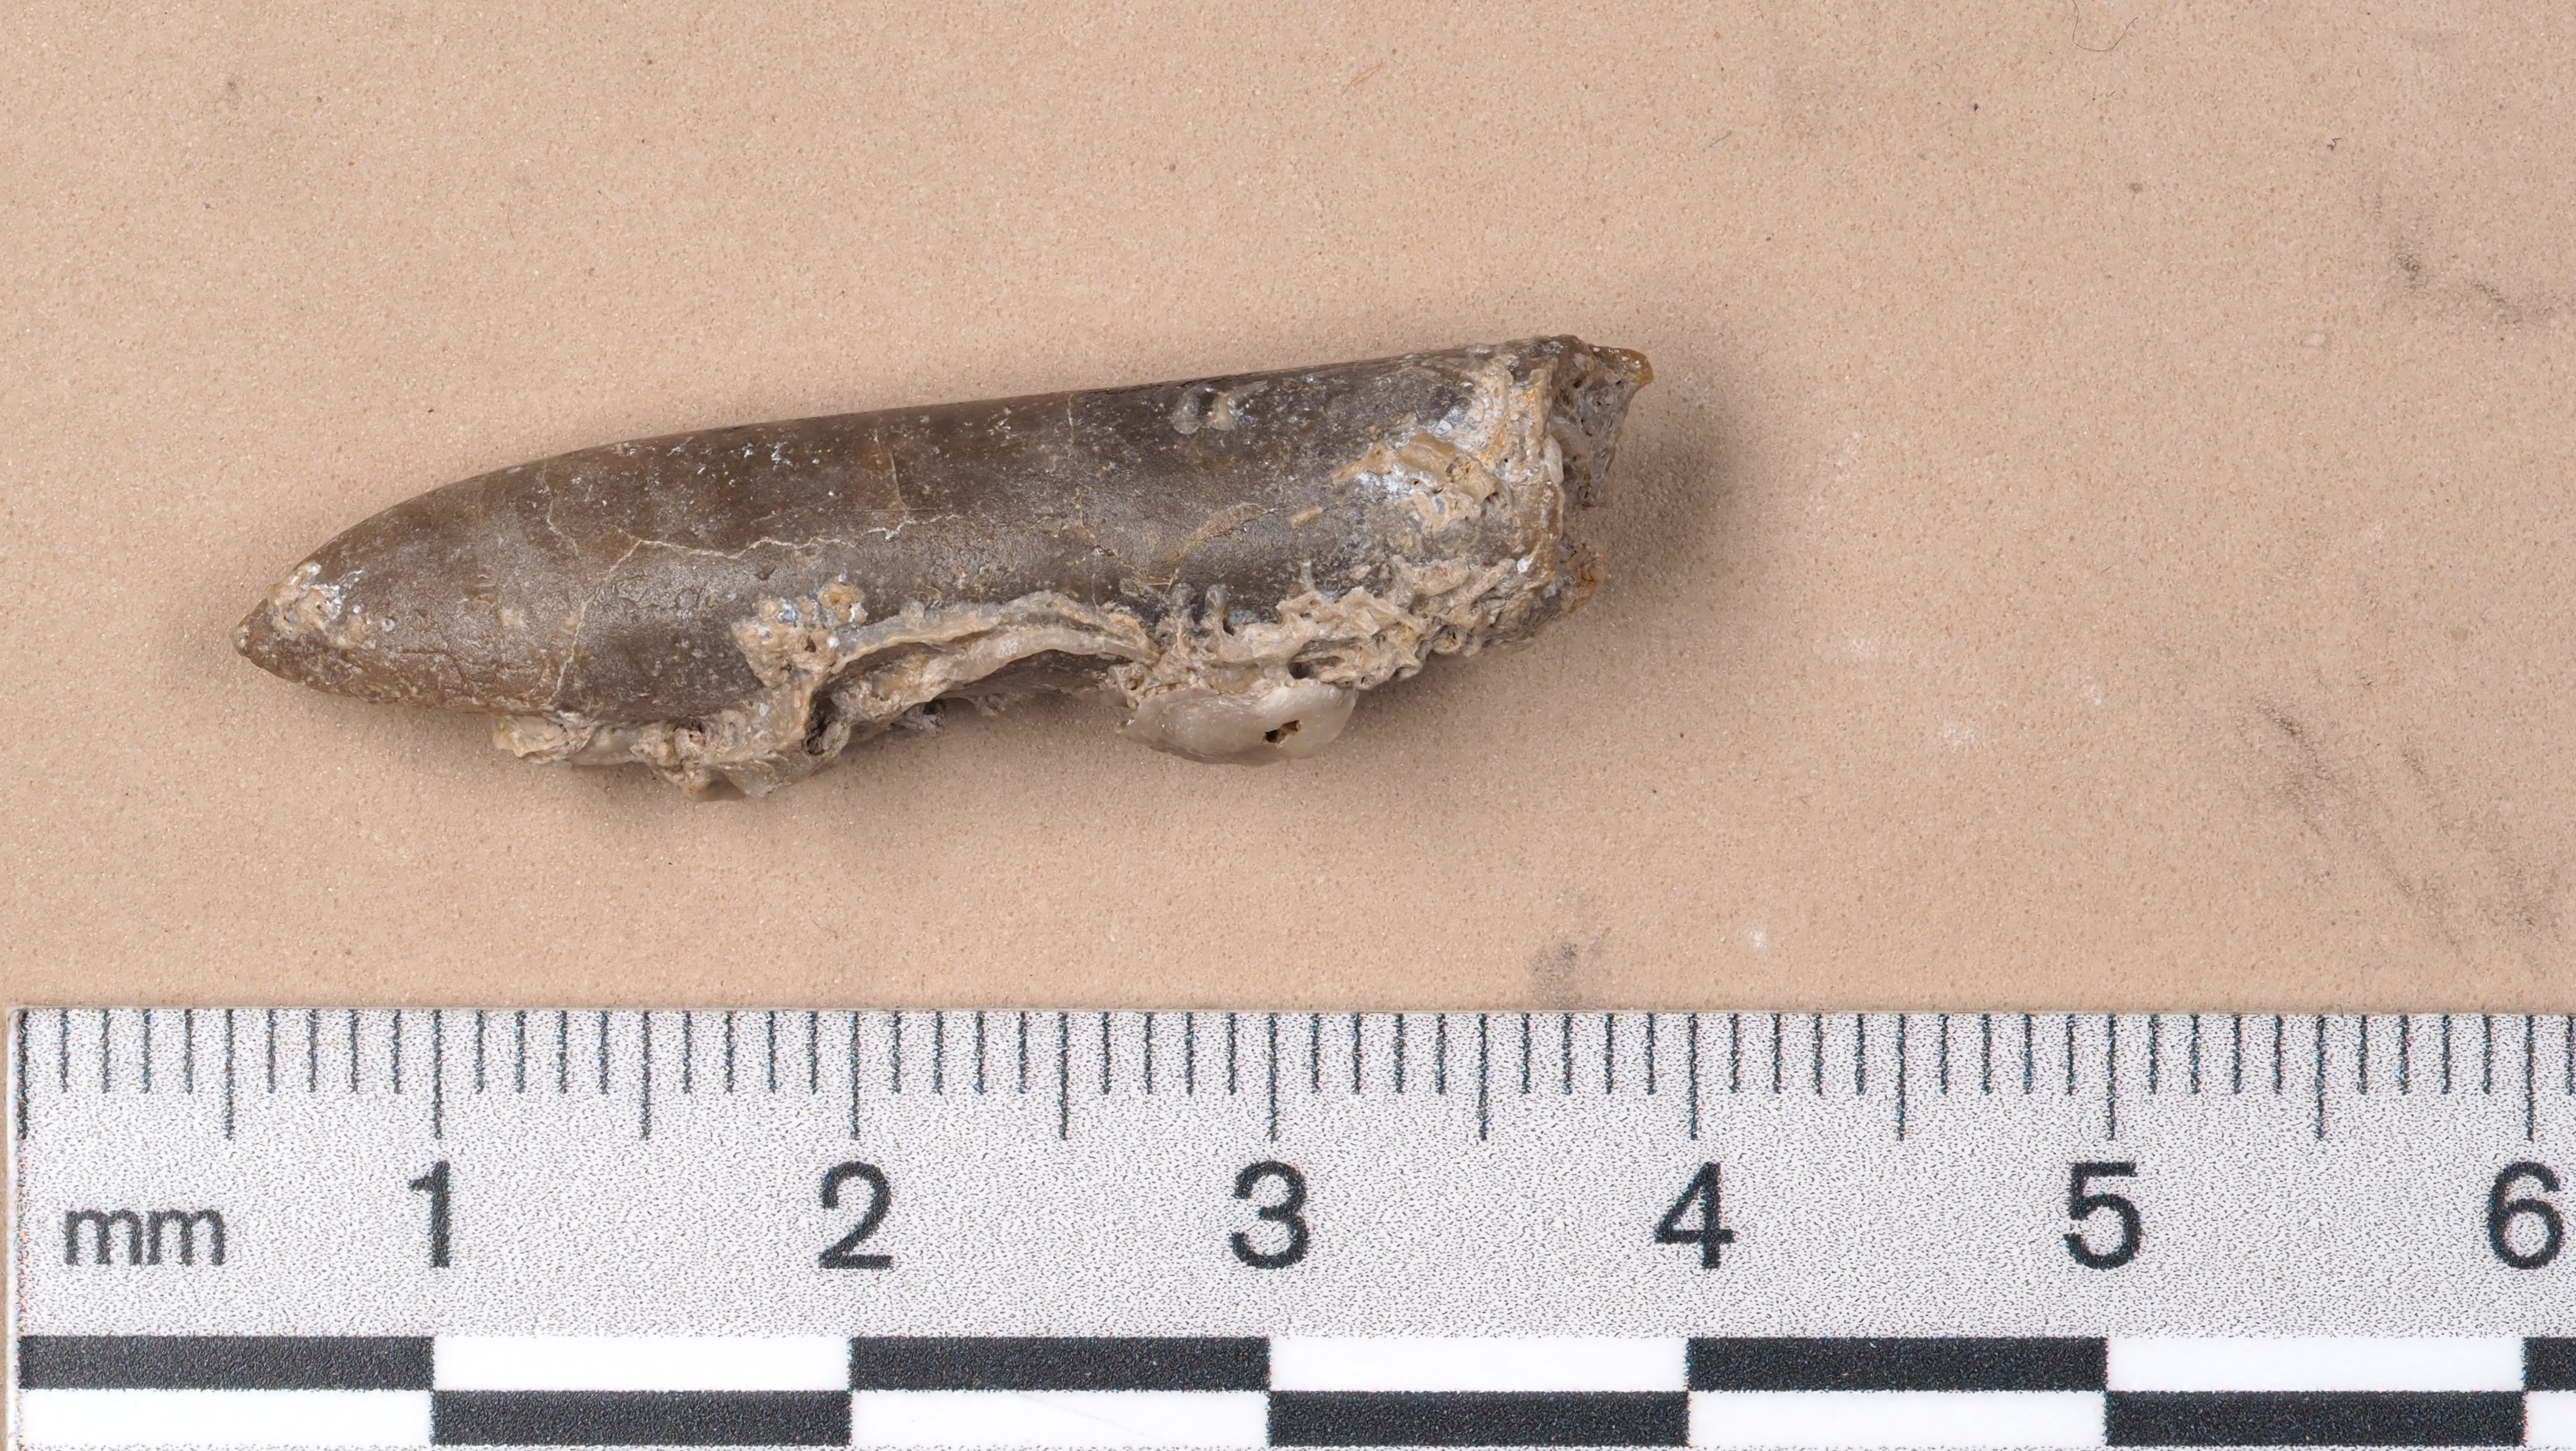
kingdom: Animalia
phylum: Mollusca
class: Cephalopoda
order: Belemnitida
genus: Pleurobelus
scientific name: Pleurobelus compressus
